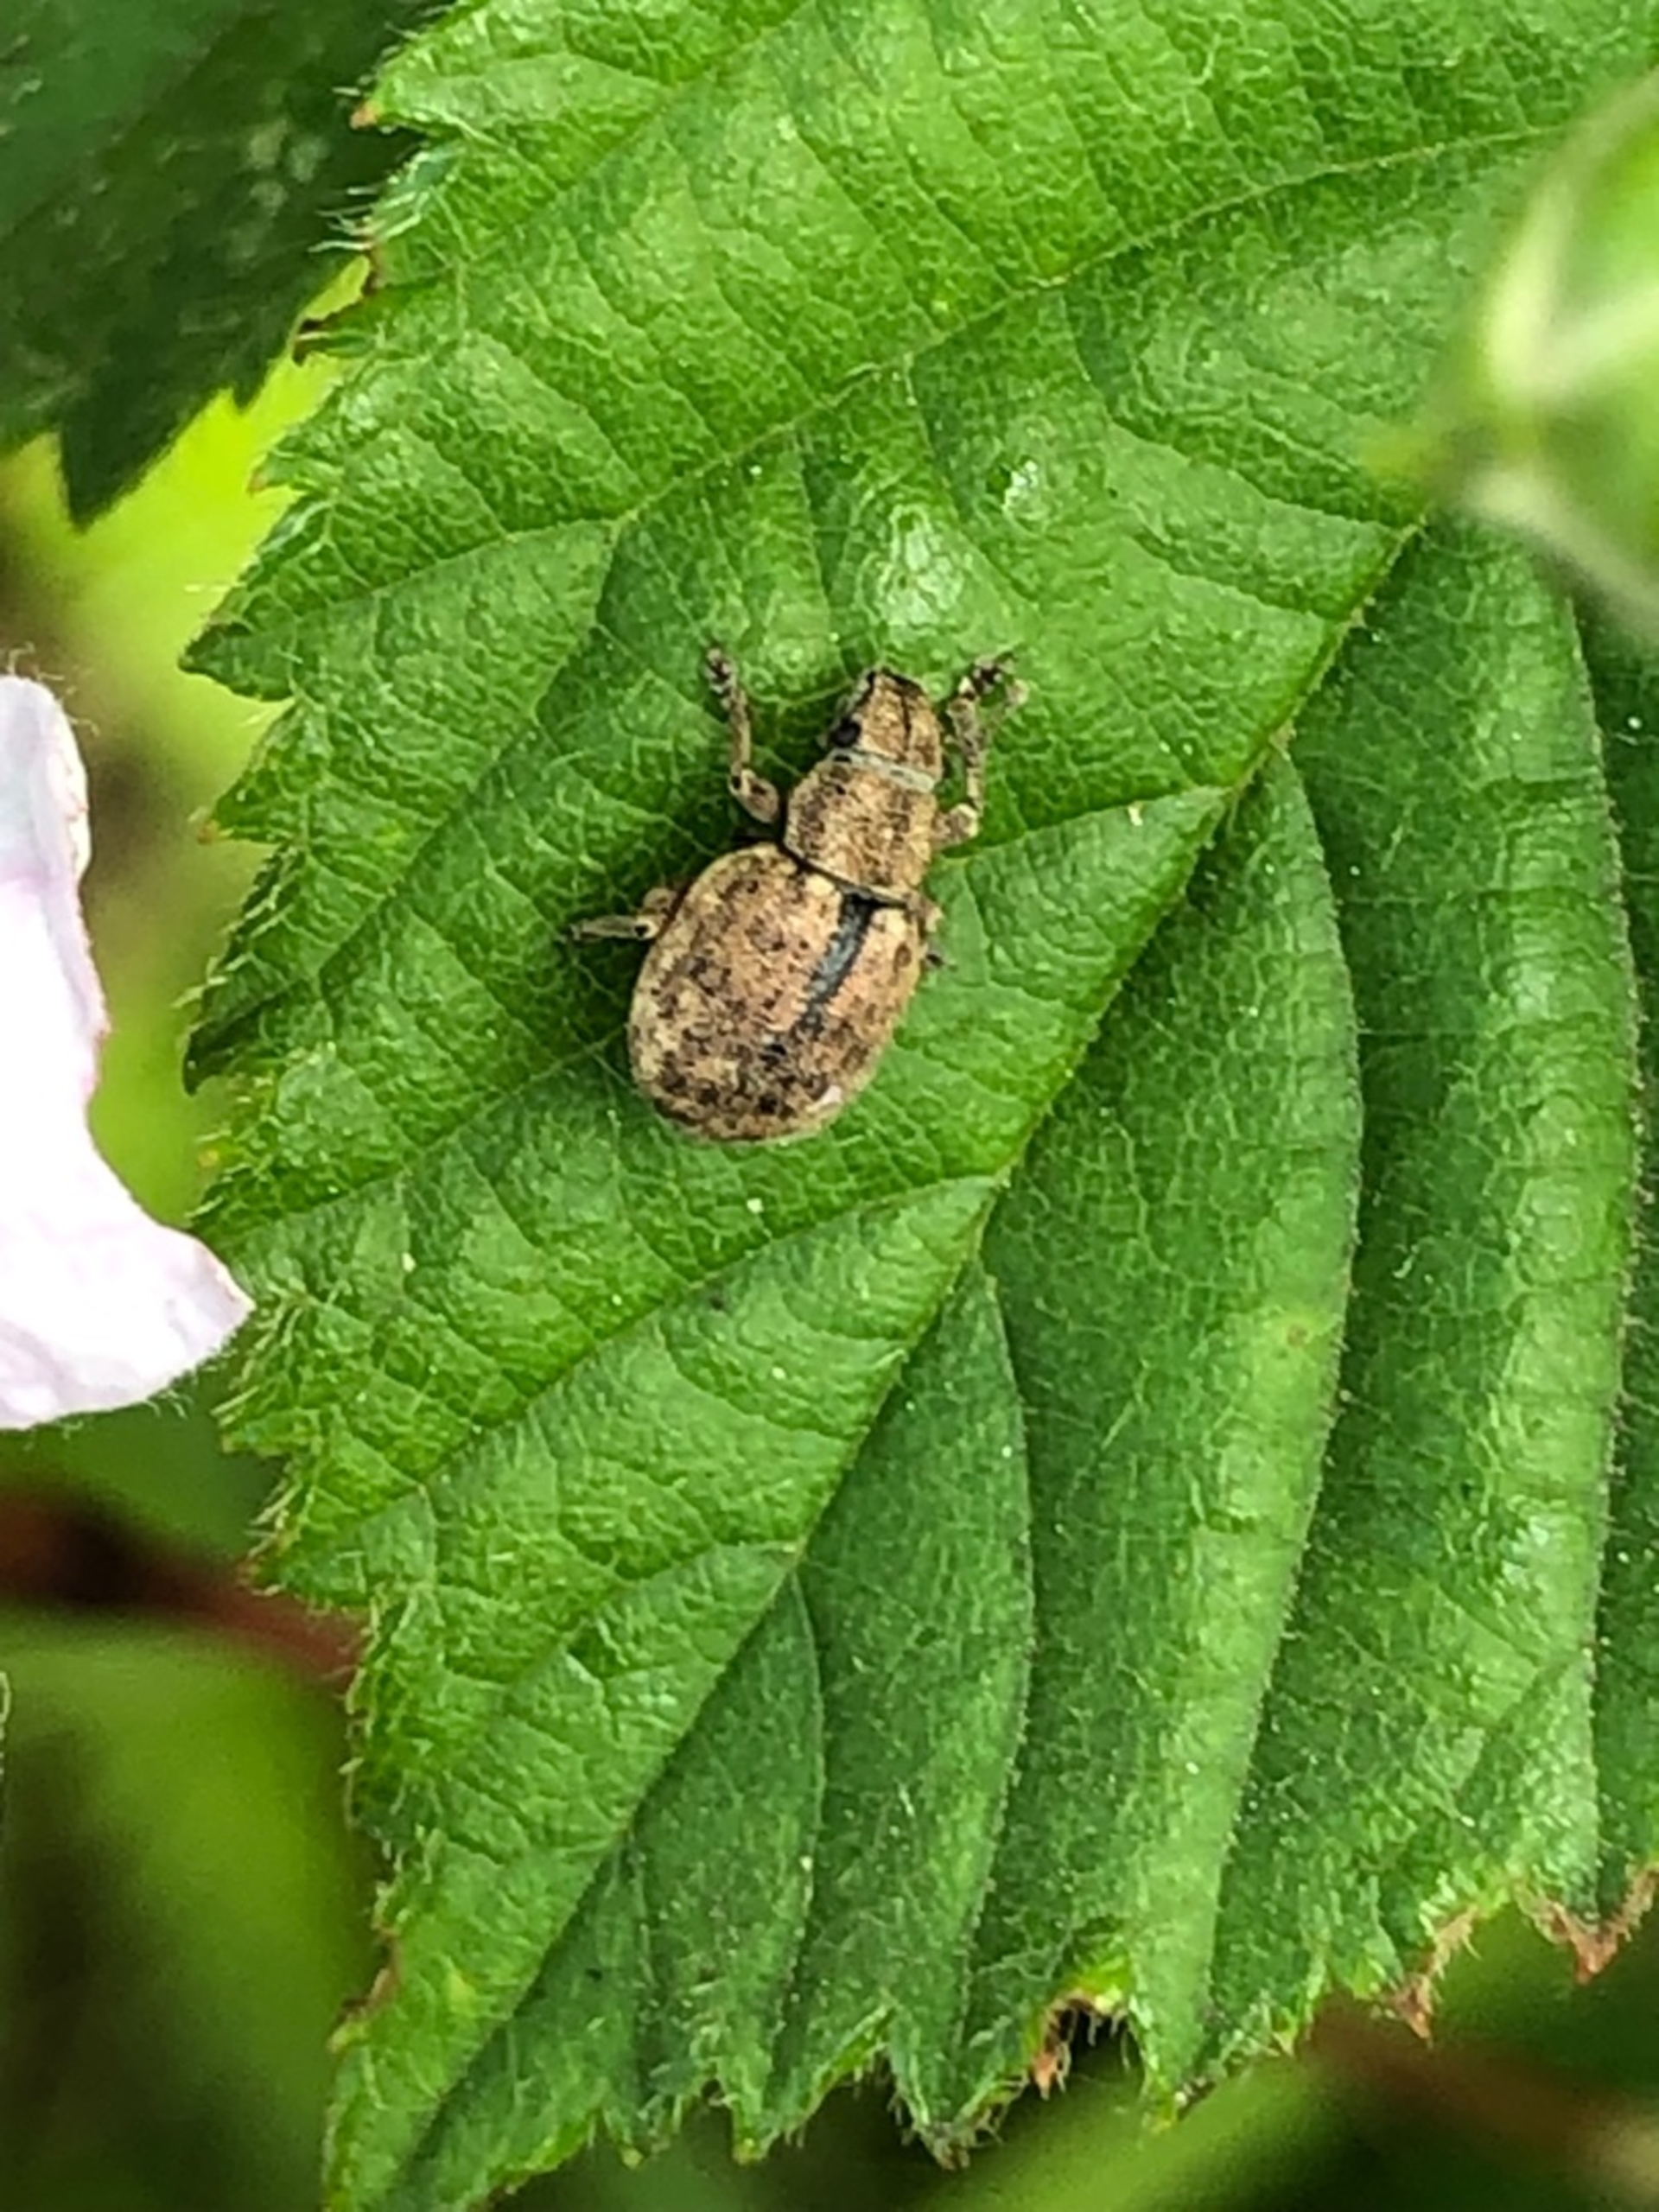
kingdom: Animalia
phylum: Arthropoda
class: Insecta
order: Coleoptera
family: Curculionidae
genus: Strophosoma
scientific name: Strophosoma melanogrammum
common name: Stribet gråsnude
